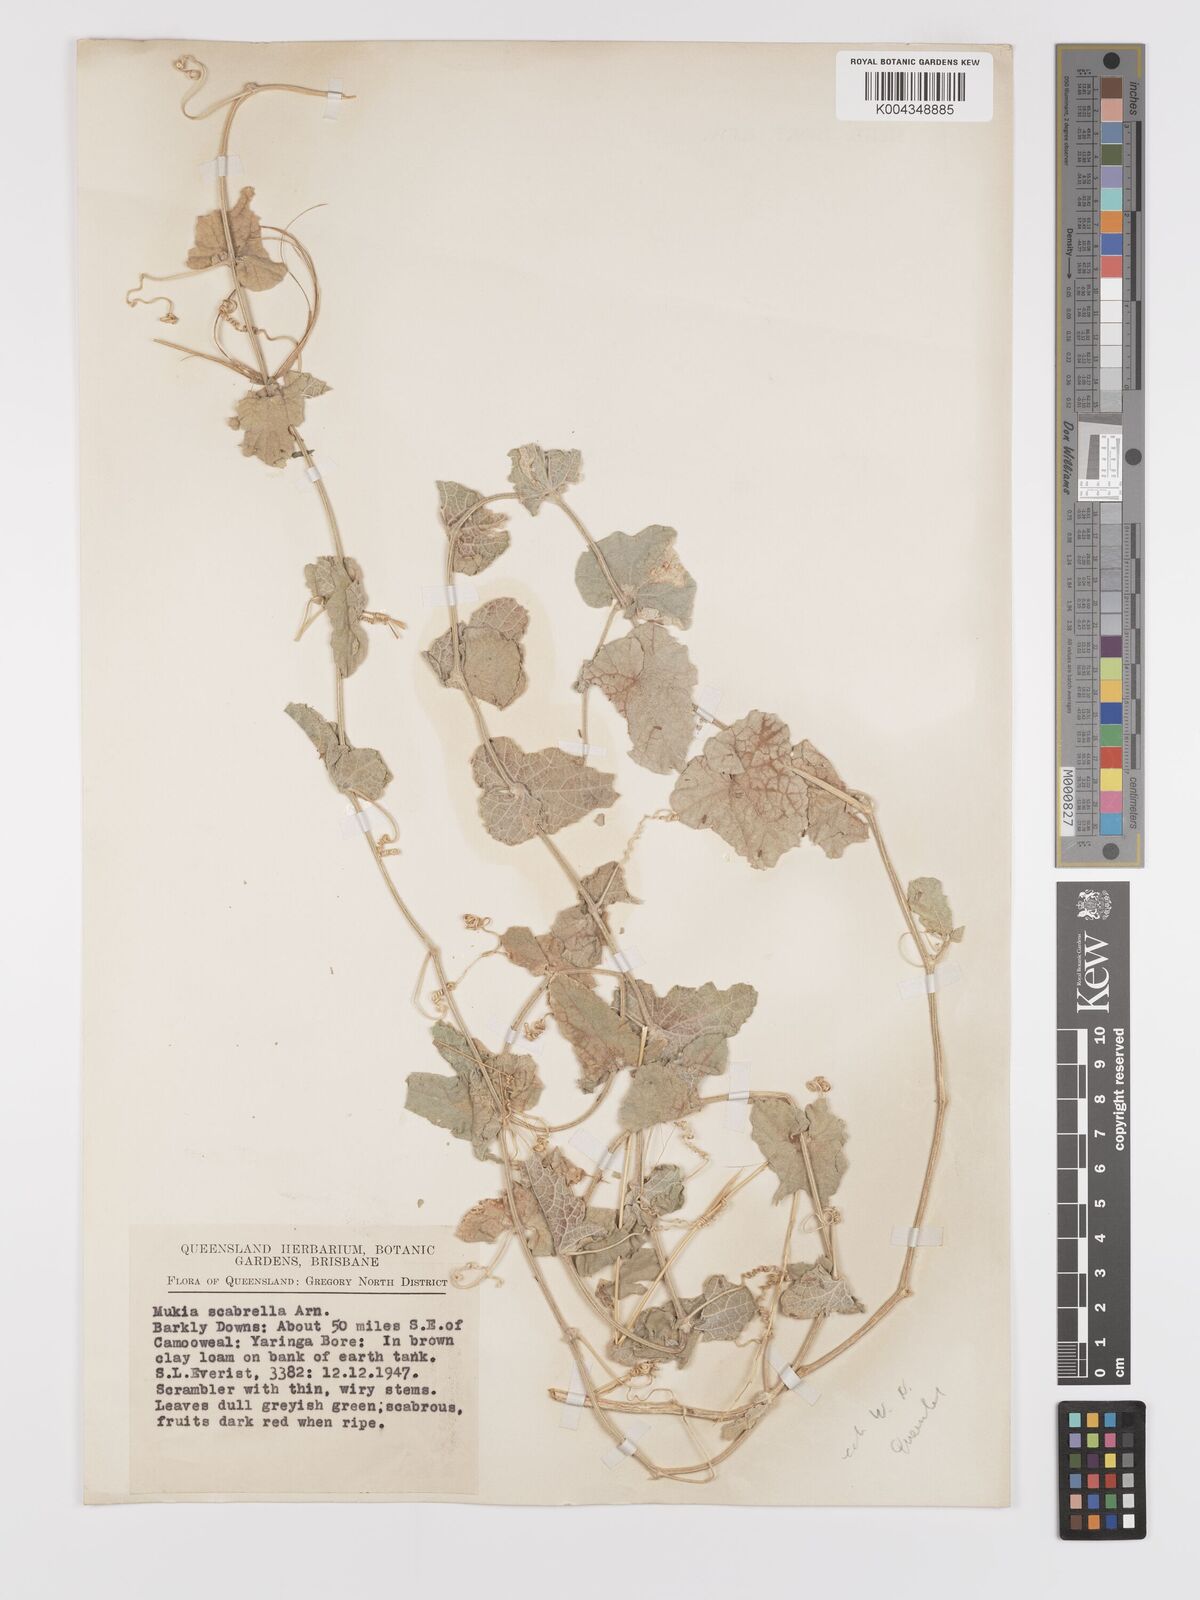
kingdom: Animalia
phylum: Arthropoda
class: Insecta
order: Lepidoptera
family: Crambidae
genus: Mukia
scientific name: Mukia
